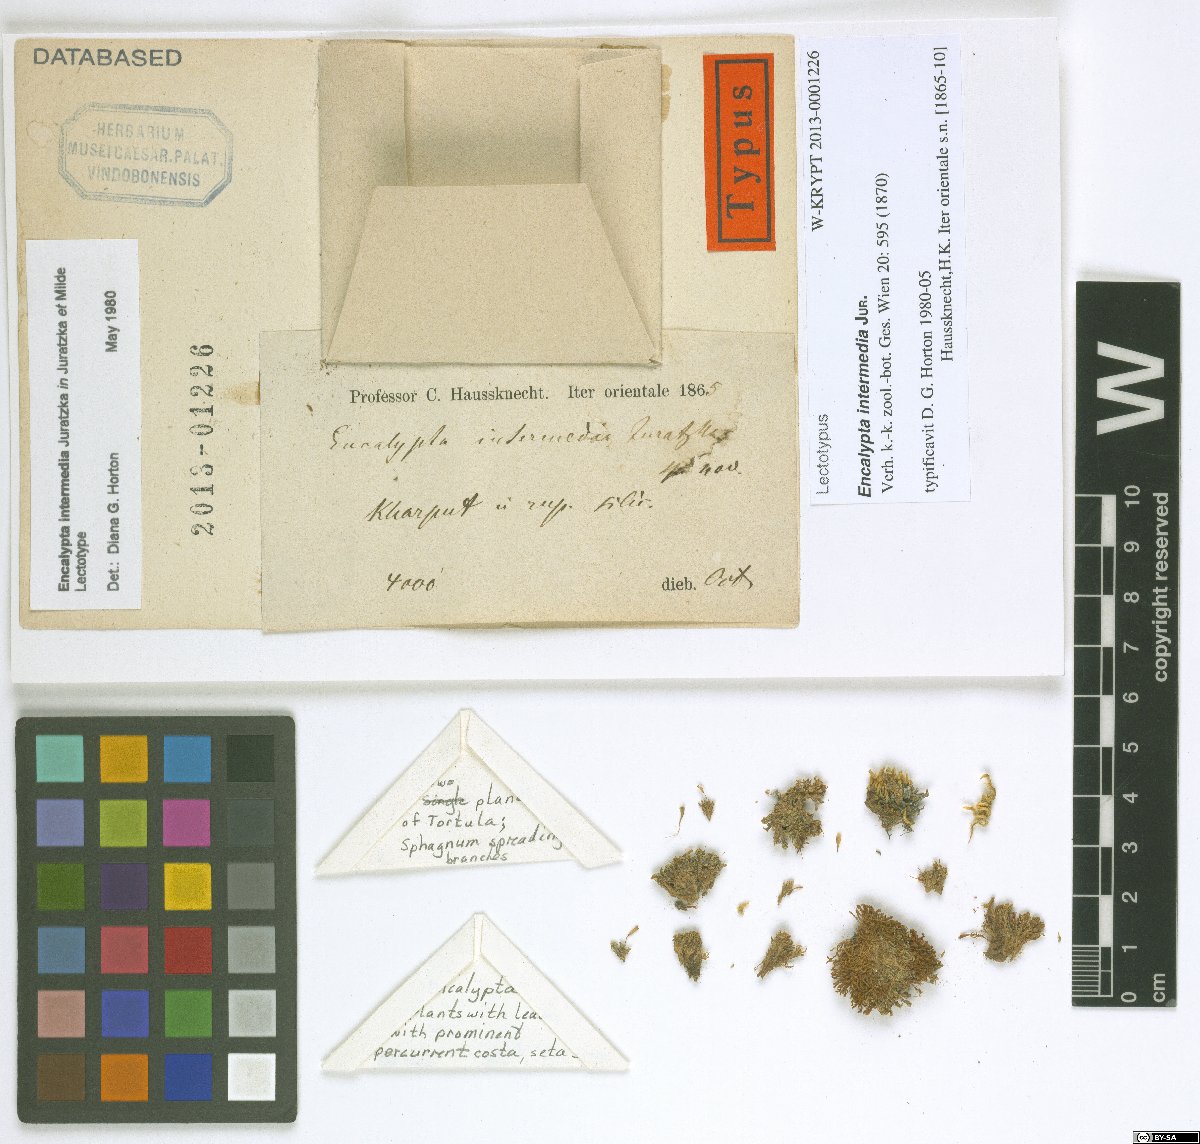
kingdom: Plantae
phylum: Bryophyta
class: Bryopsida
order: Encalyptales
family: Encalyptaceae
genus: Encalypta
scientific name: Encalypta pilifera
